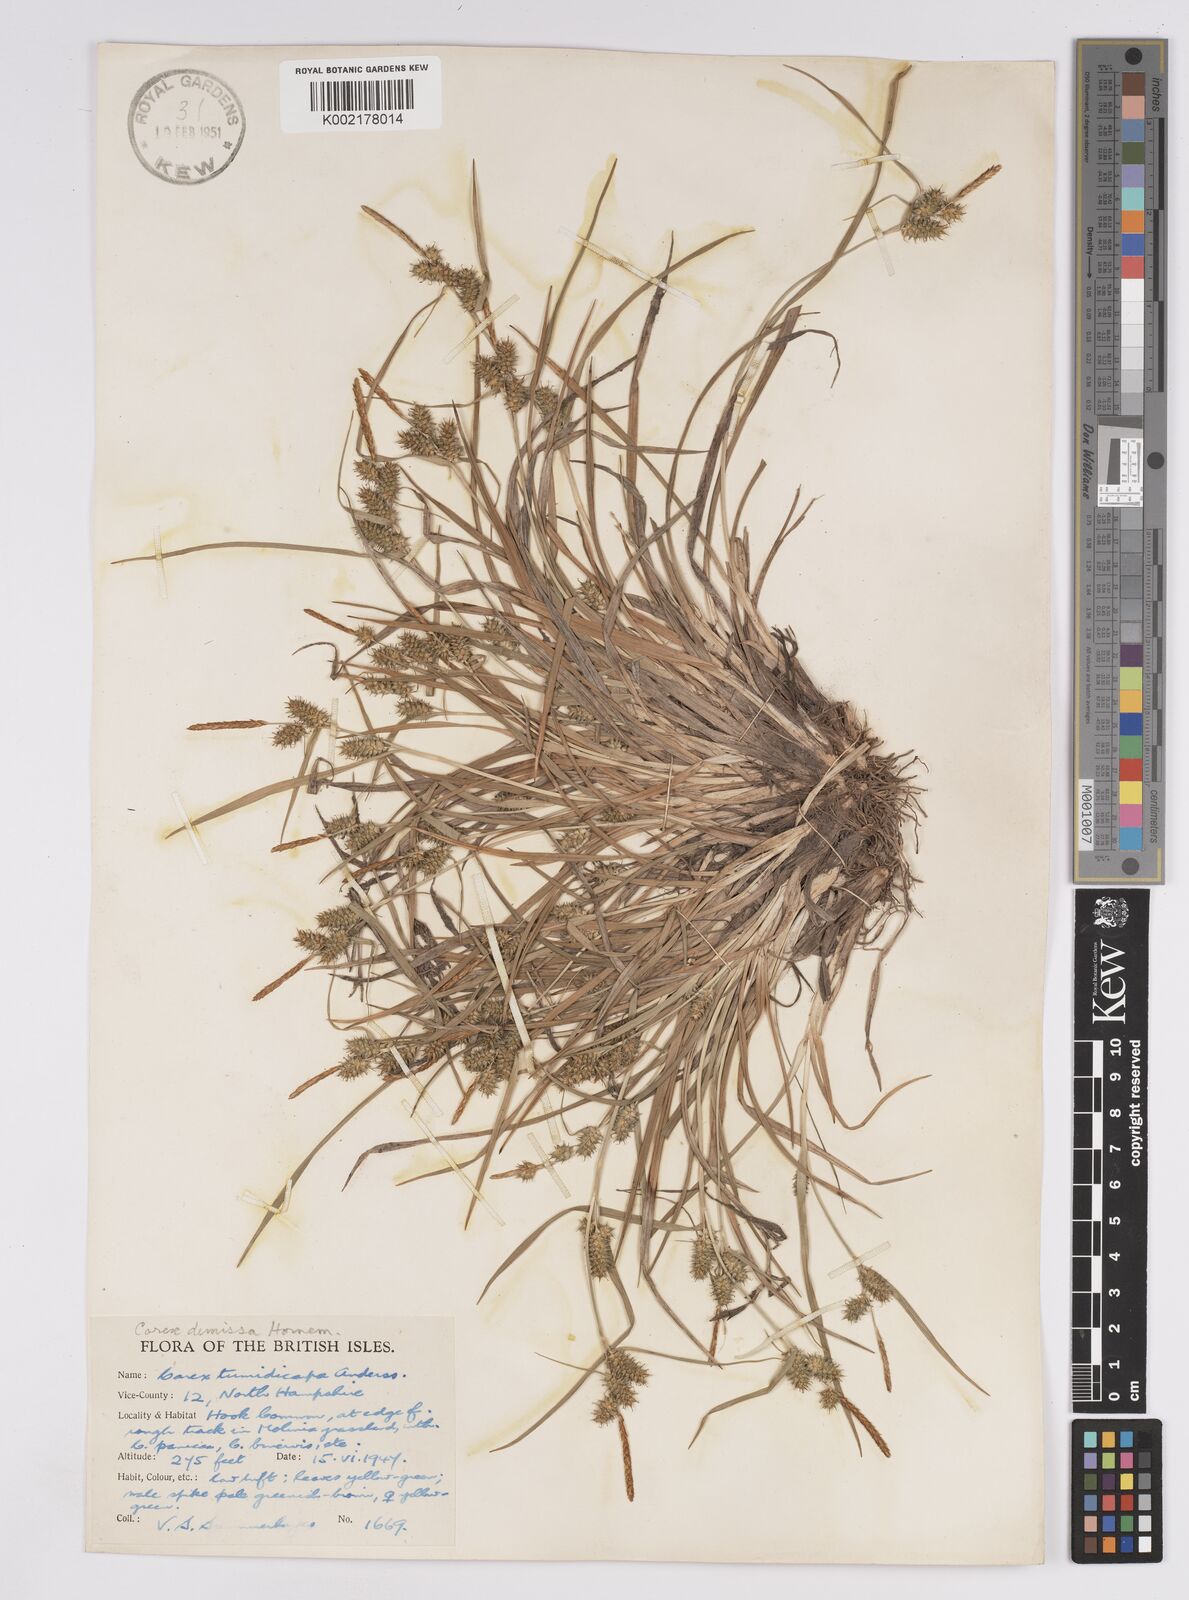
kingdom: Plantae
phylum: Tracheophyta
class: Liliopsida
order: Poales
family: Cyperaceae
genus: Carex
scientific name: Carex demissa
